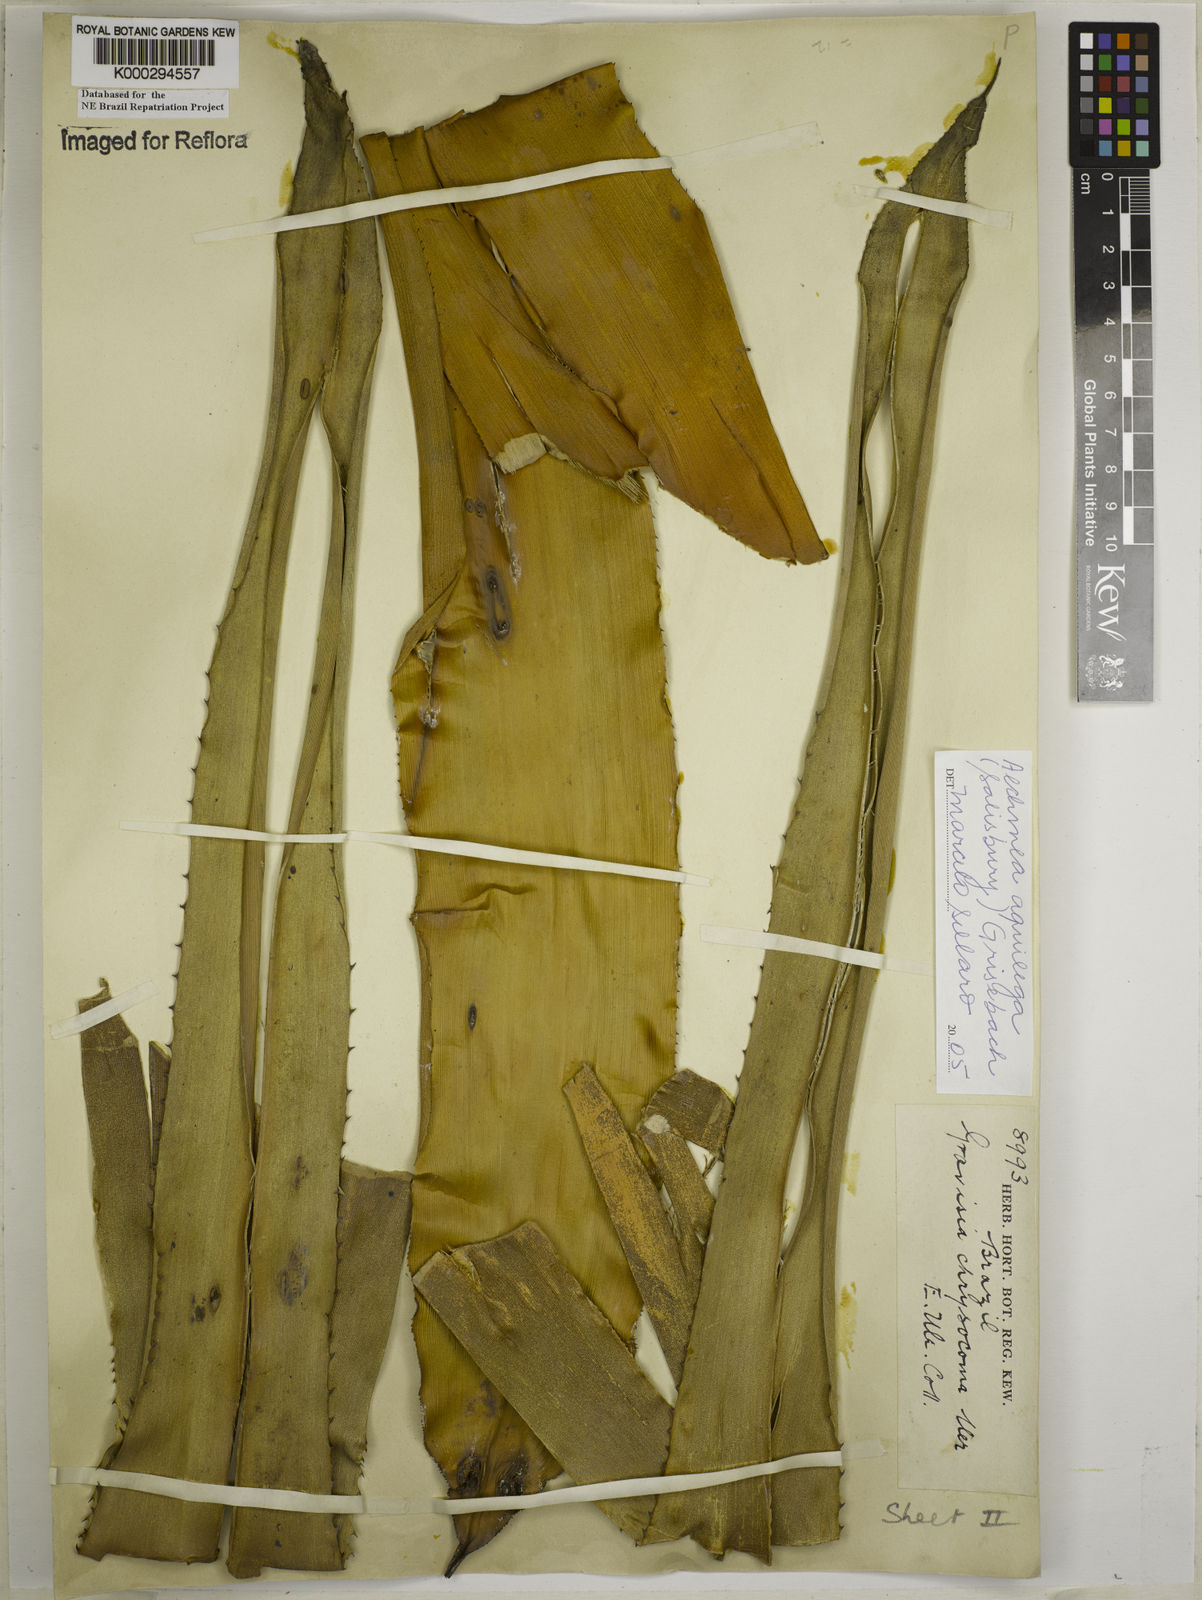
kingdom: Plantae
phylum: Tracheophyta
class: Liliopsida
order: Poales
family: Bromeliaceae
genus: Aechmea
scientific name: Aechmea aquilega
